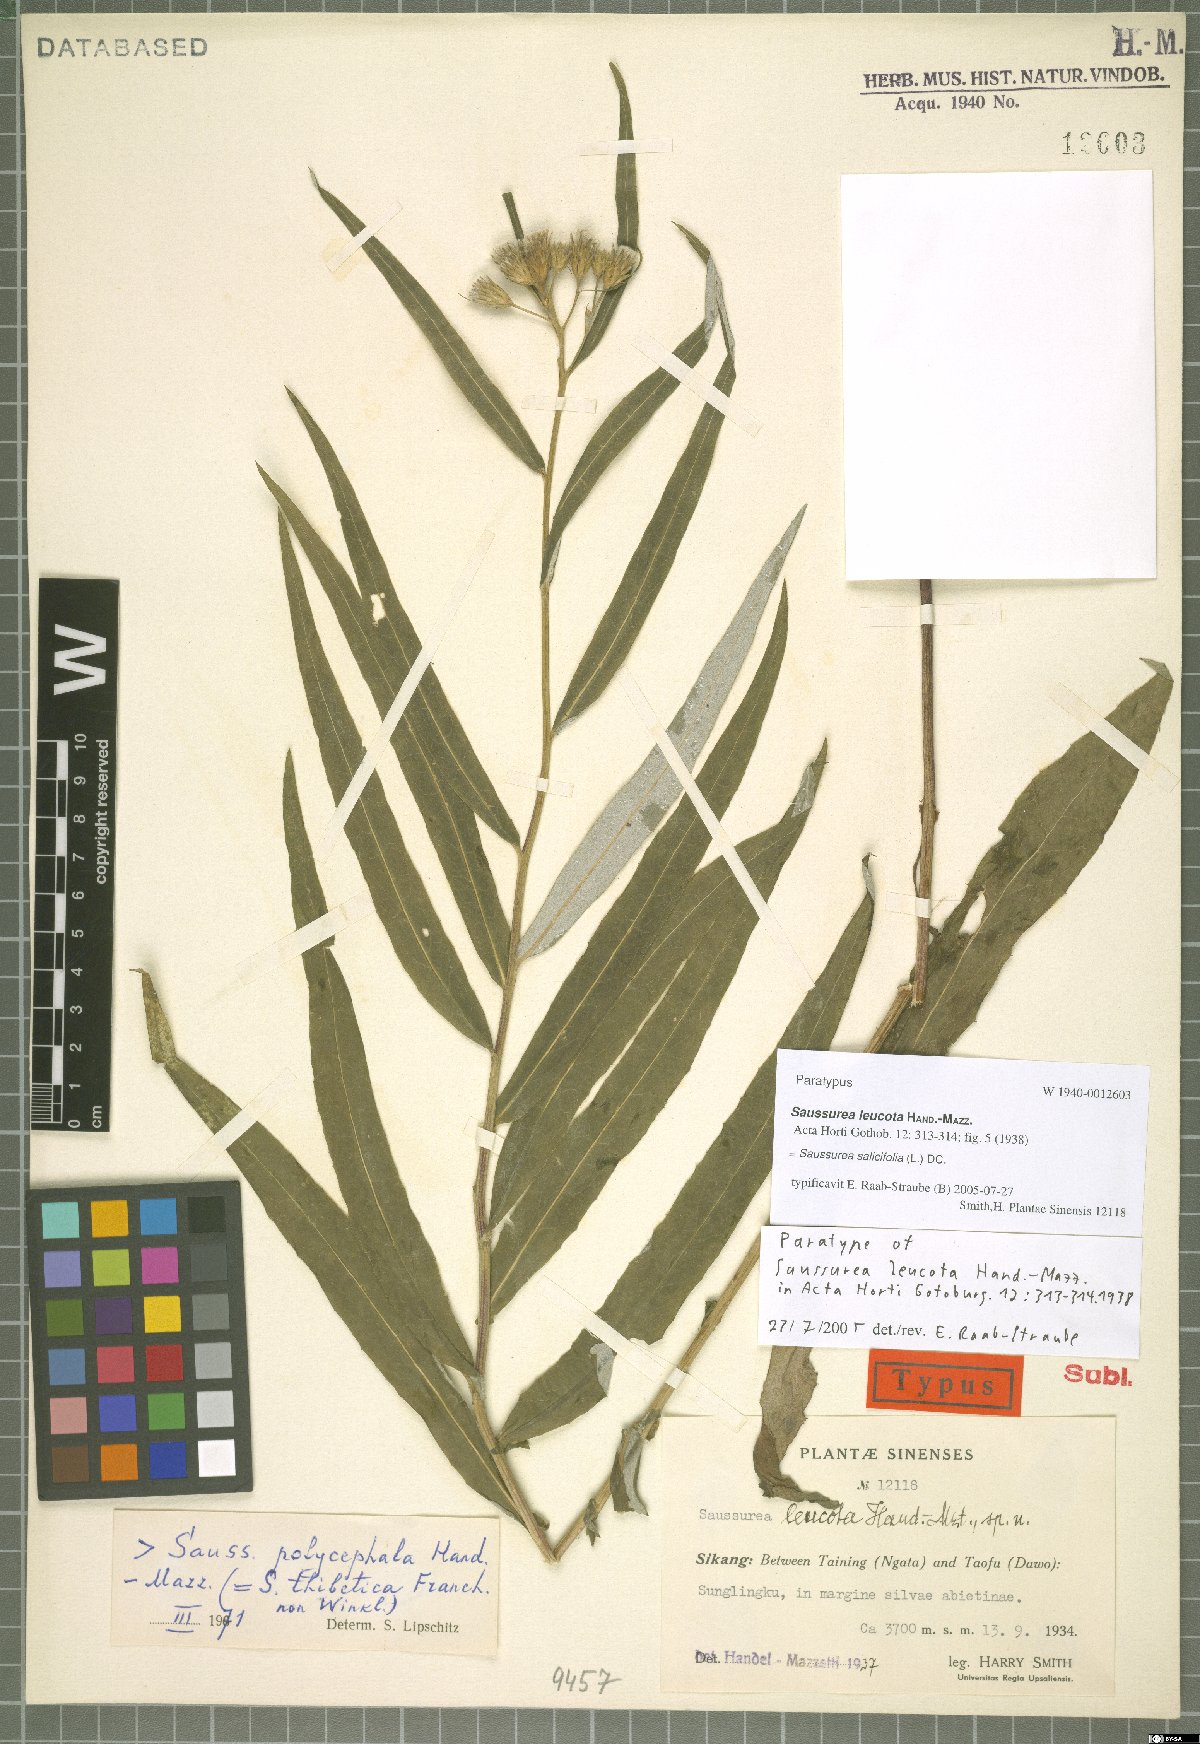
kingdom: Plantae
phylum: Tracheophyta
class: Magnoliopsida
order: Asterales
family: Asteraceae
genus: Saussurea
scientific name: Saussurea salicifolia
